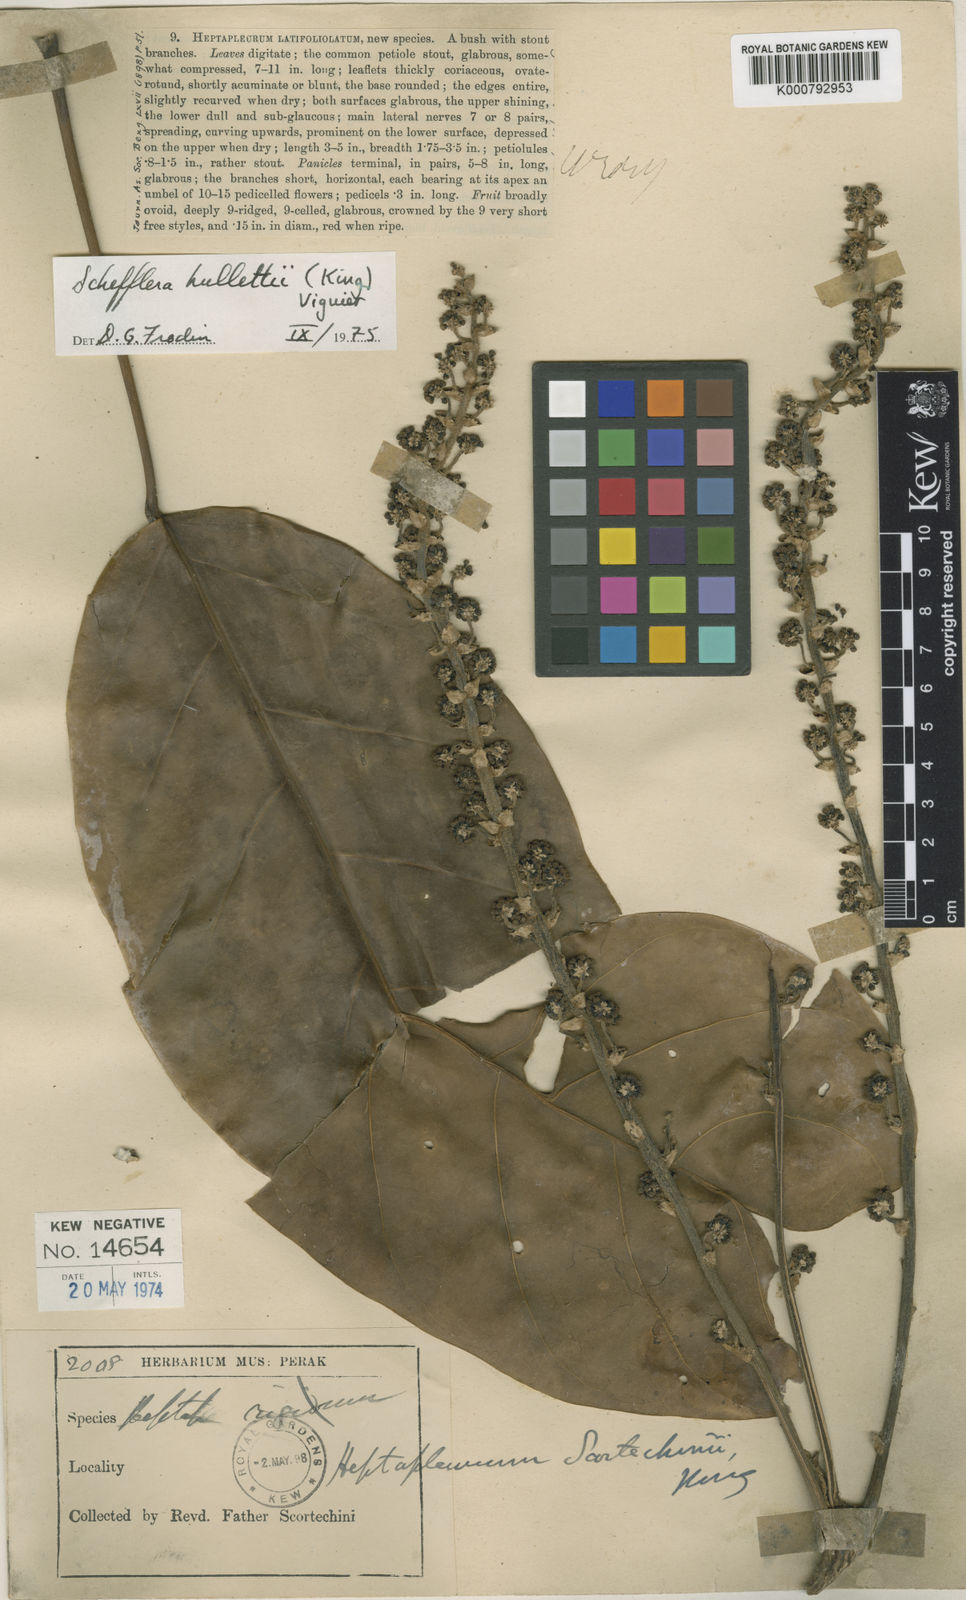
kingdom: Plantae
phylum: Tracheophyta
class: Magnoliopsida
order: Apiales
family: Araliaceae
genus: Heptapleurum
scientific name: Heptapleurum hullettii
